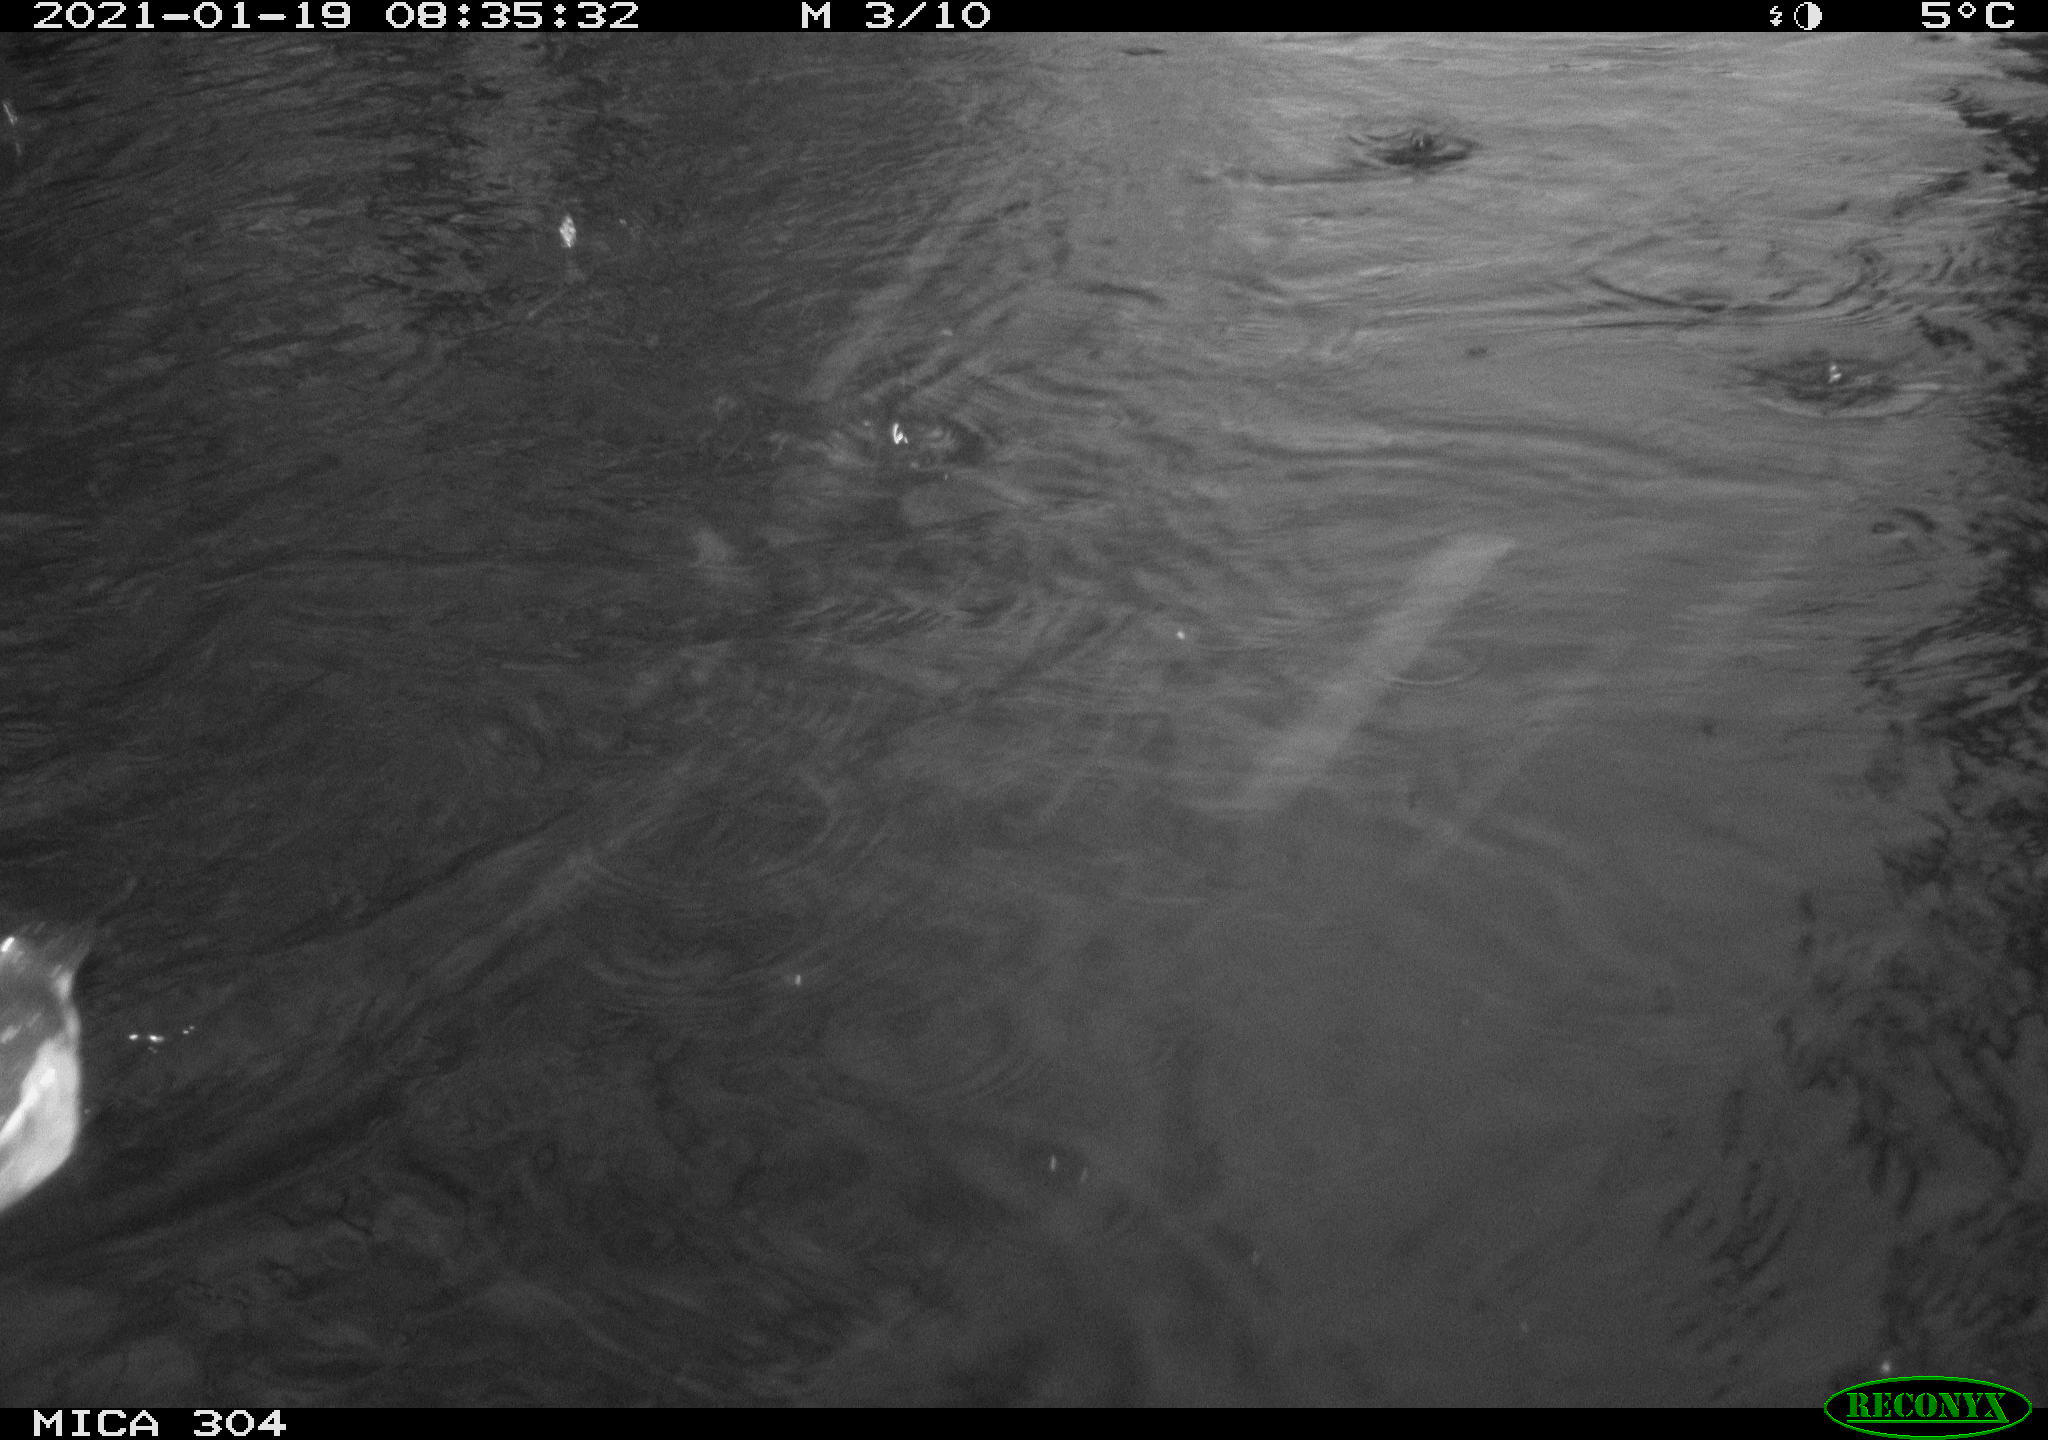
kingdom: Animalia
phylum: Chordata
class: Aves
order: Gruiformes
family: Rallidae
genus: Gallinula
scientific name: Gallinula chloropus
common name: Common moorhen
